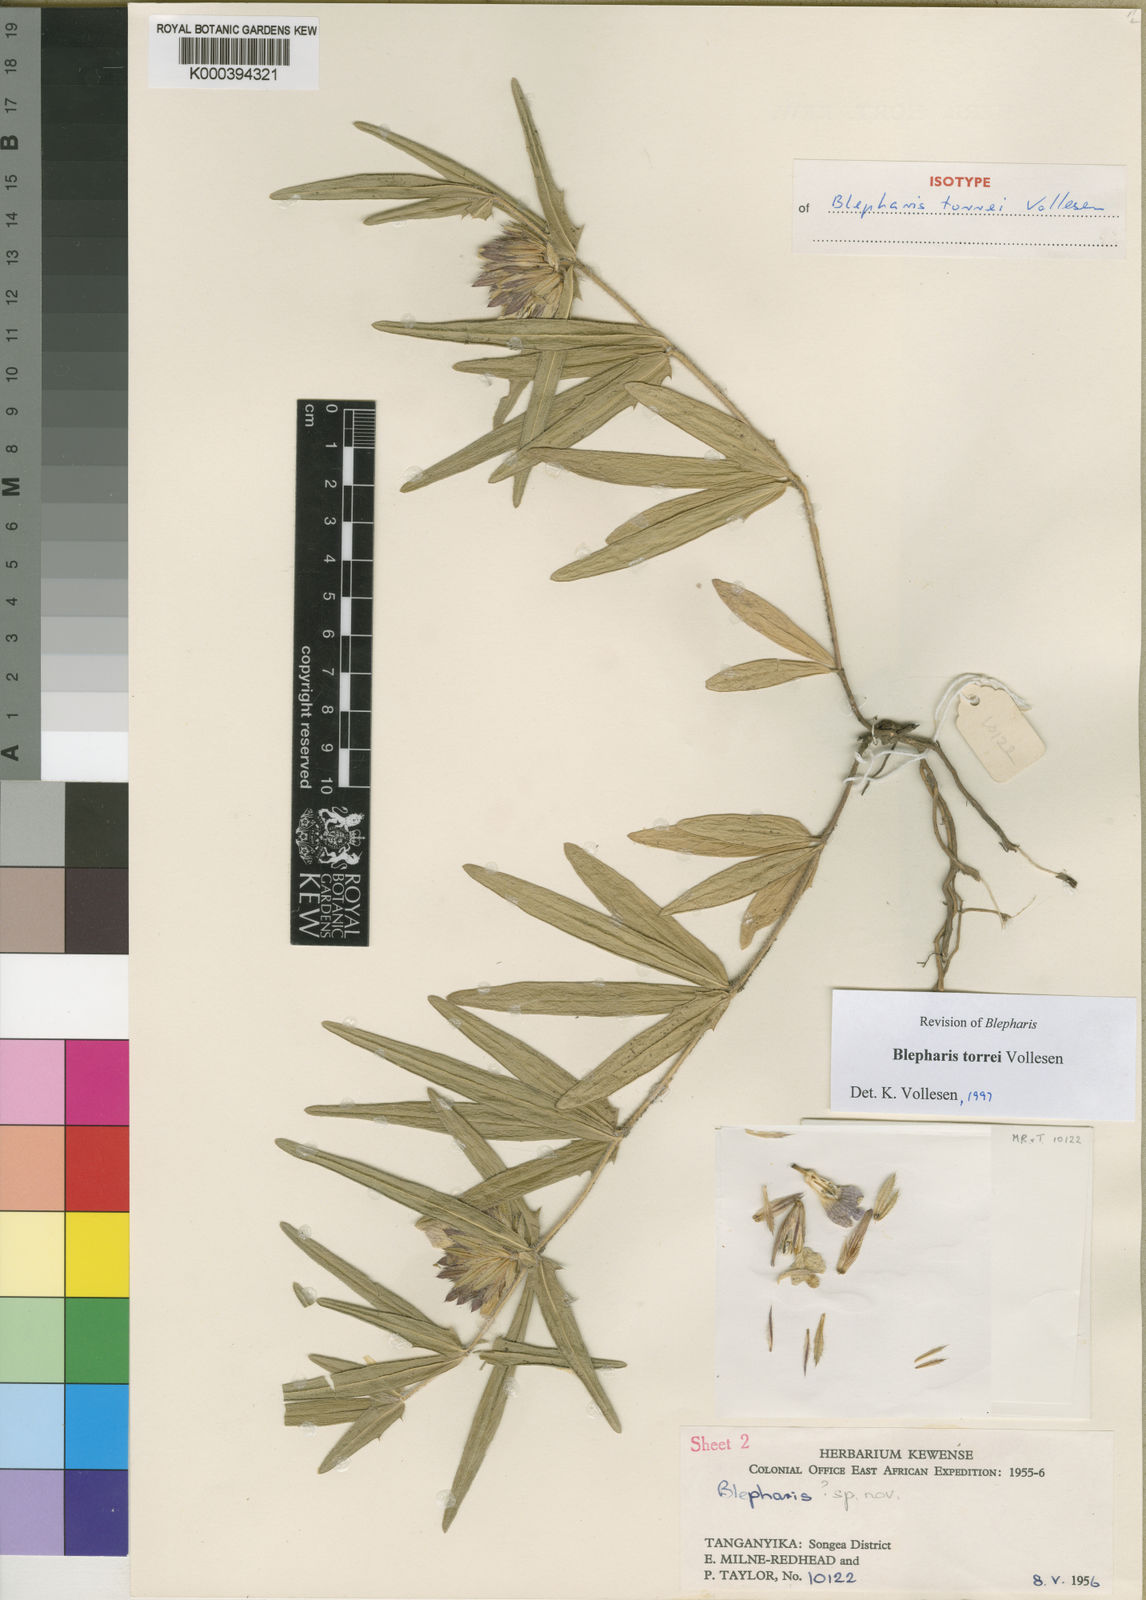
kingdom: Plantae
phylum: Tracheophyta
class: Magnoliopsida
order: Lamiales
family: Acanthaceae
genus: Blepharis
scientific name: Blepharis torrei
